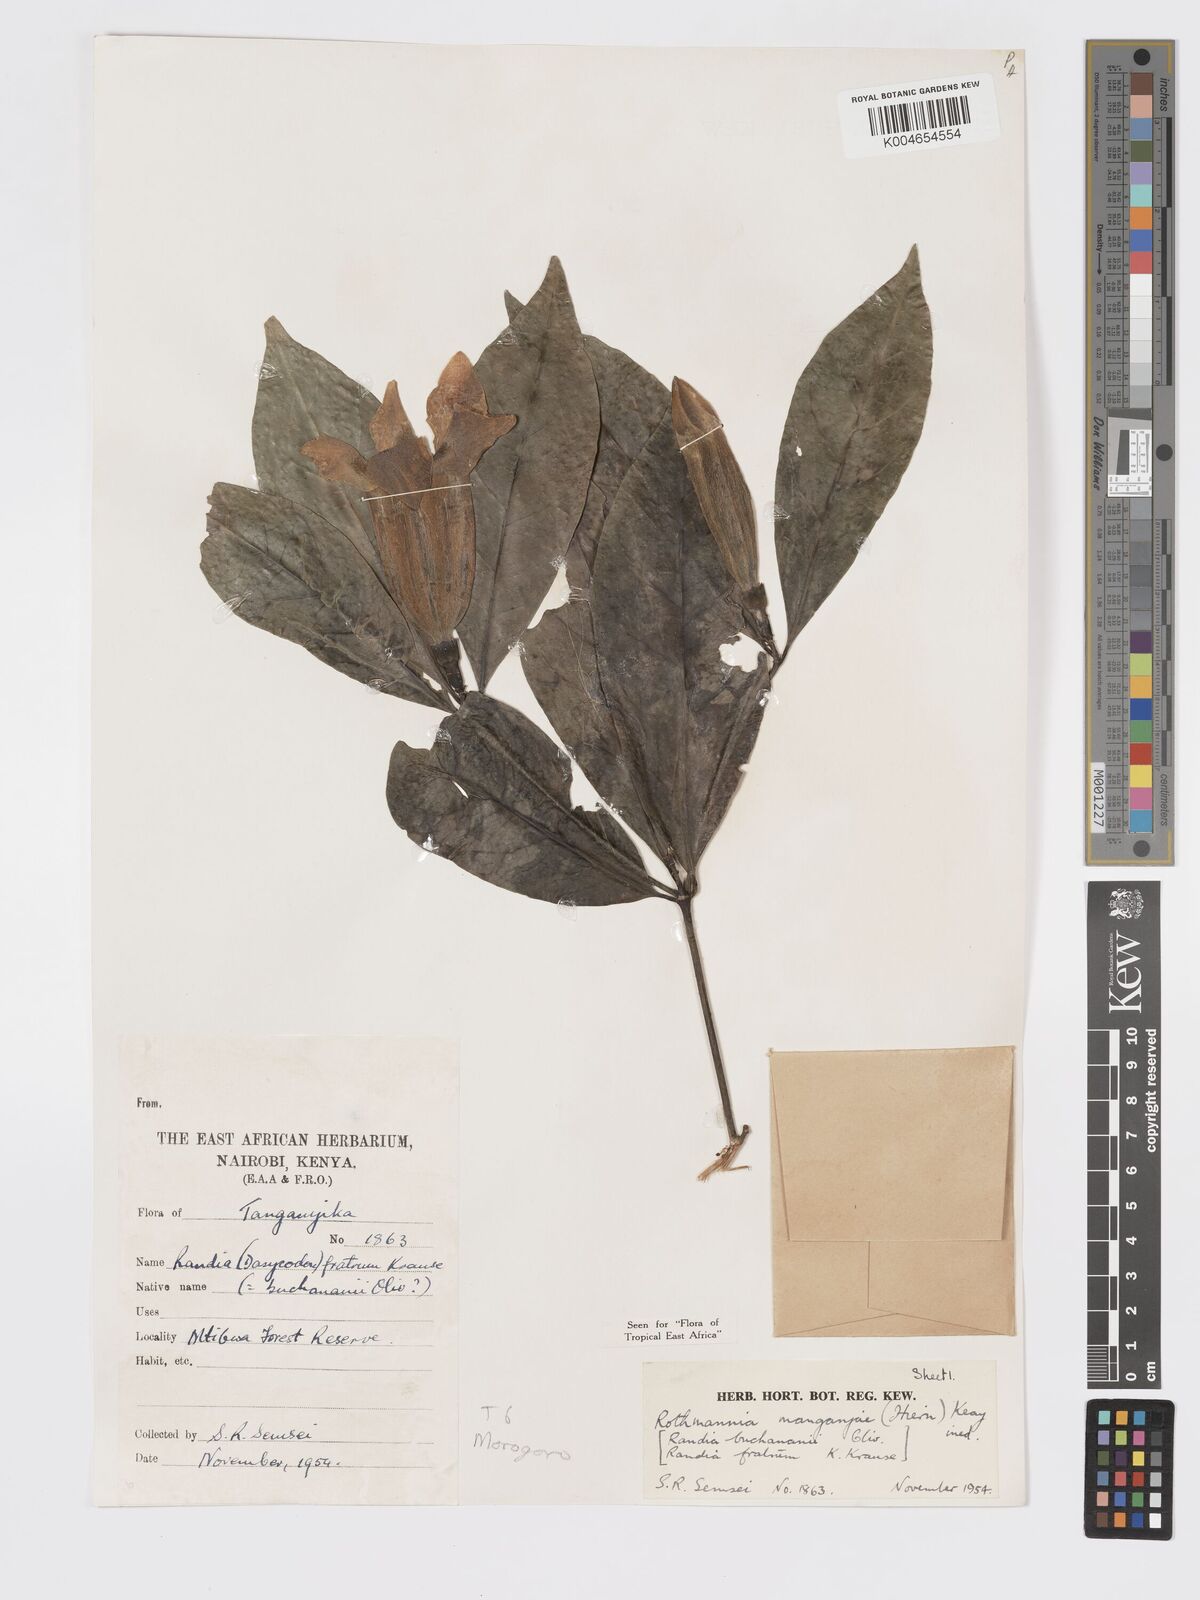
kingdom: Plantae
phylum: Tracheophyta
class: Magnoliopsida
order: Gentianales
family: Rubiaceae
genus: Rothmannia
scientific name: Rothmannia manganjae
